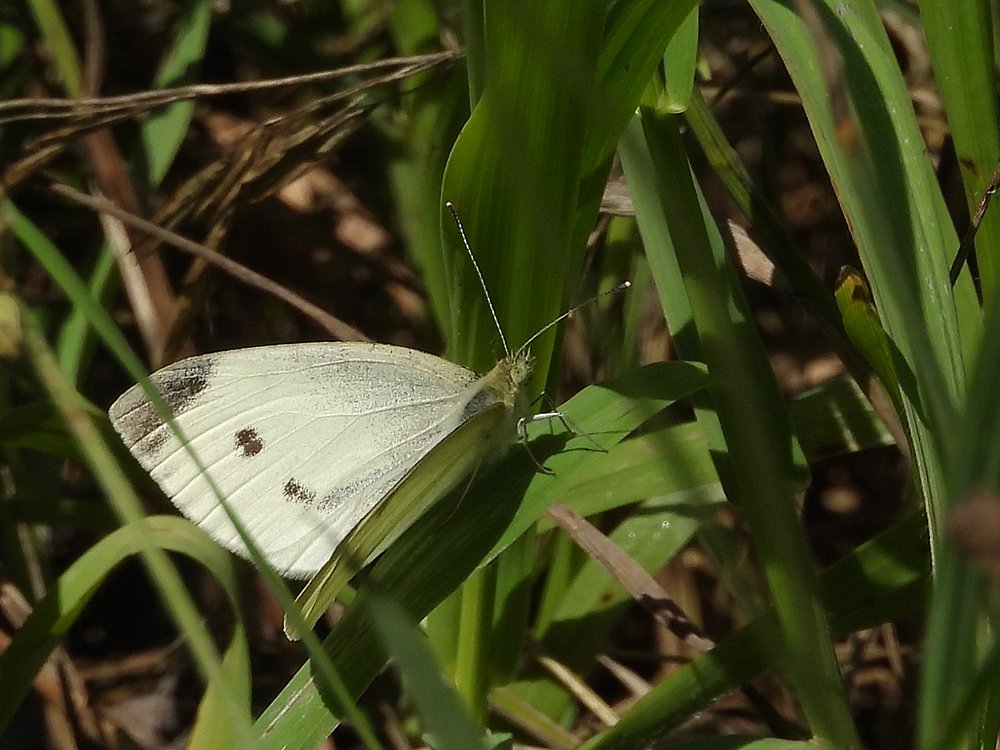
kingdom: Animalia
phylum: Arthropoda
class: Insecta
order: Lepidoptera
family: Pieridae
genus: Pieris
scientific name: Pieris rapae
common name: Cabbage White
